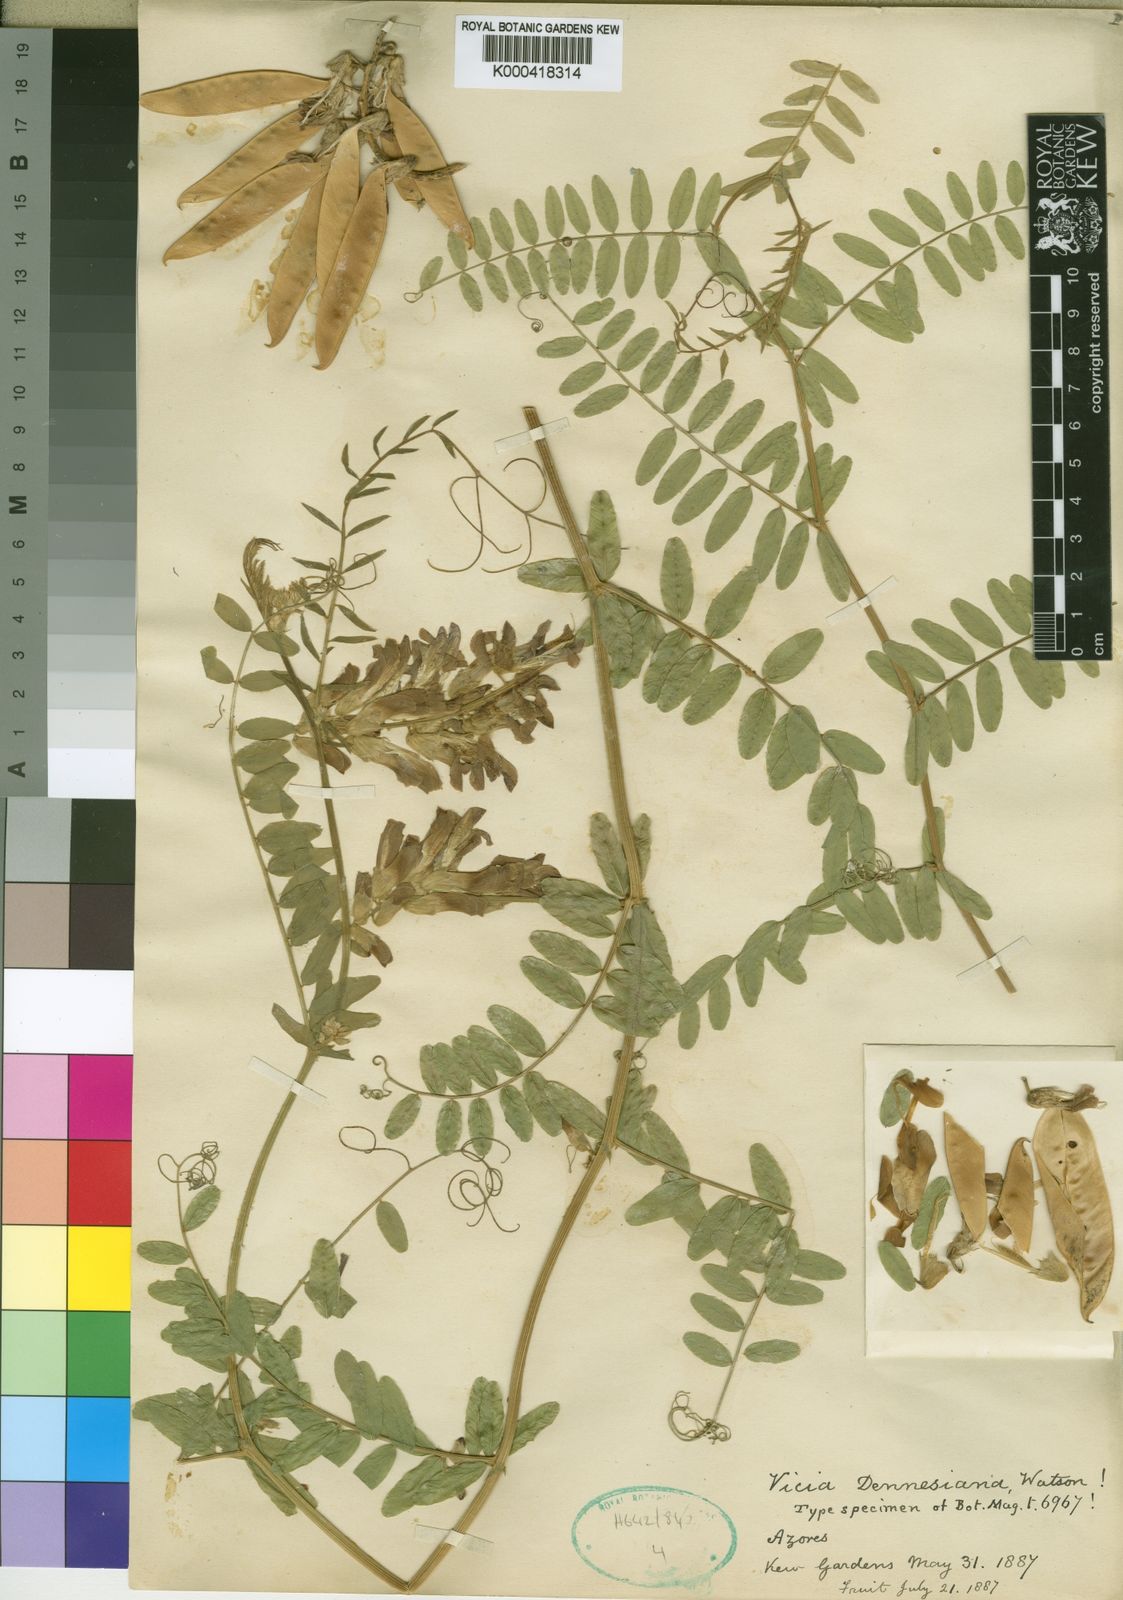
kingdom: Plantae
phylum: Tracheophyta
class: Magnoliopsida
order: Fabales
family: Fabaceae
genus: Vicia
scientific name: Vicia dennesiana
